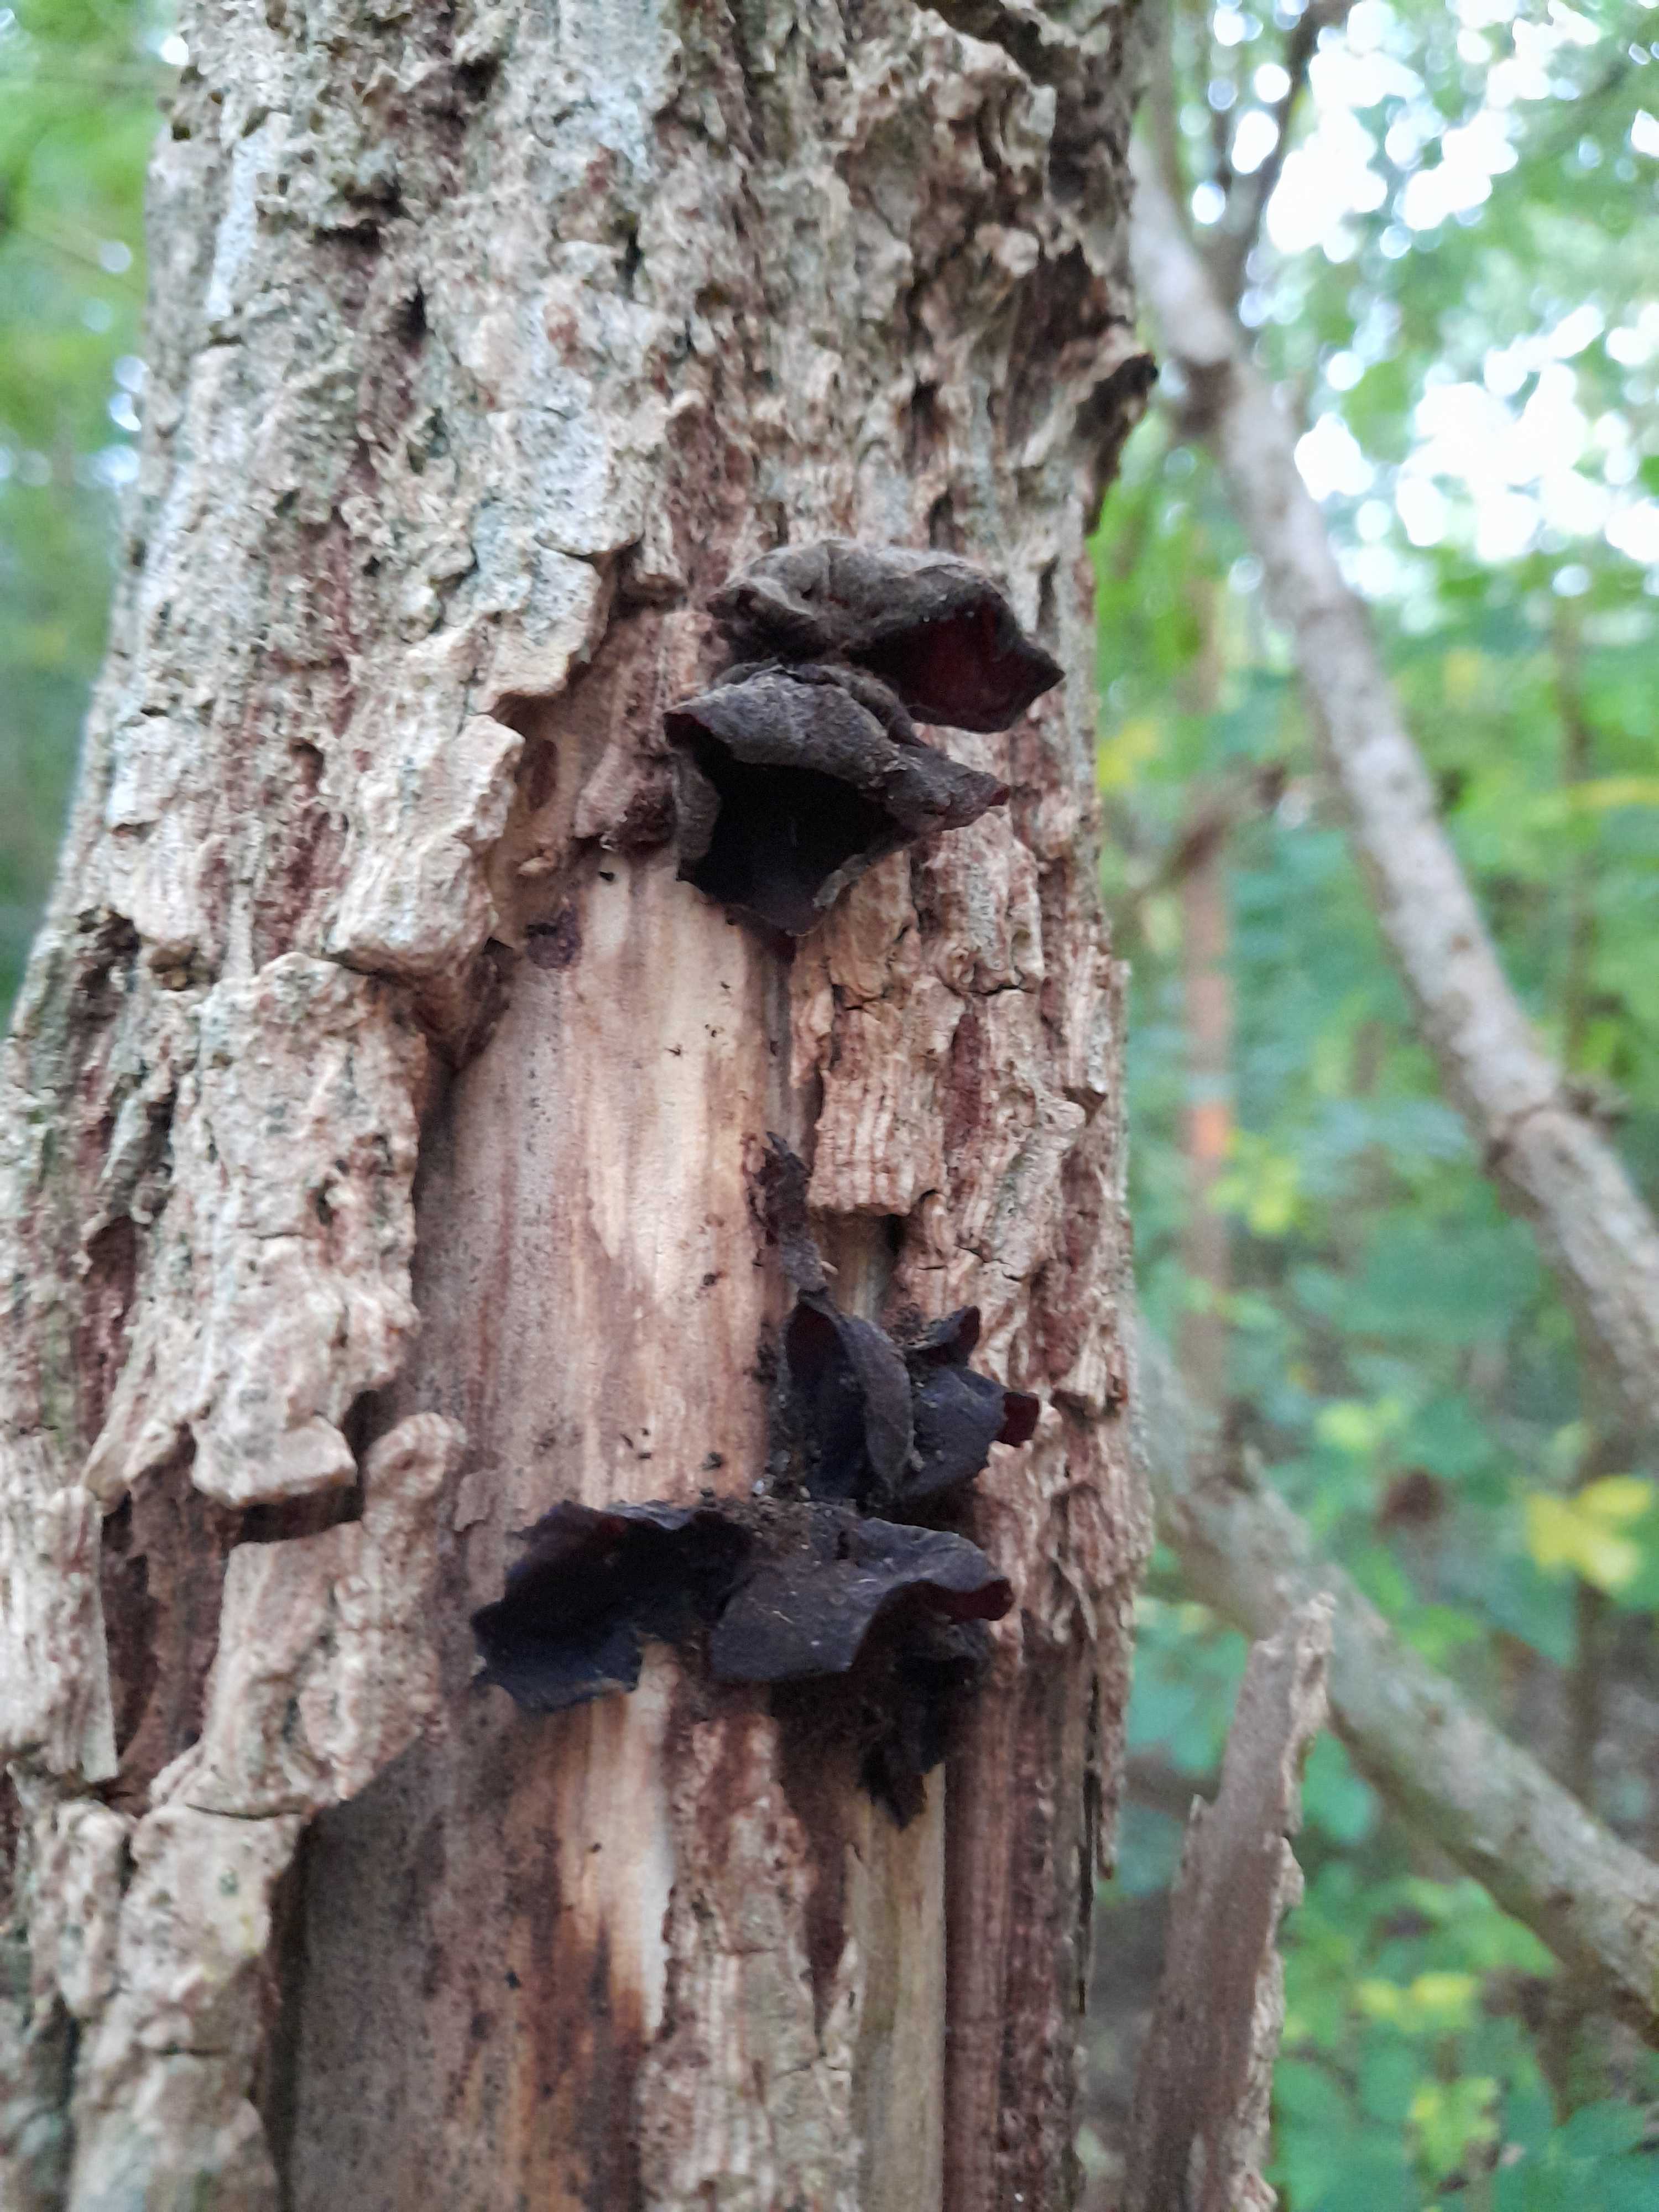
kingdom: Fungi
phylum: Basidiomycota
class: Agaricomycetes
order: Auriculariales
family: Auriculariaceae
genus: Auricularia
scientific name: Auricularia auricula-judae
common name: almindelig judasøre
